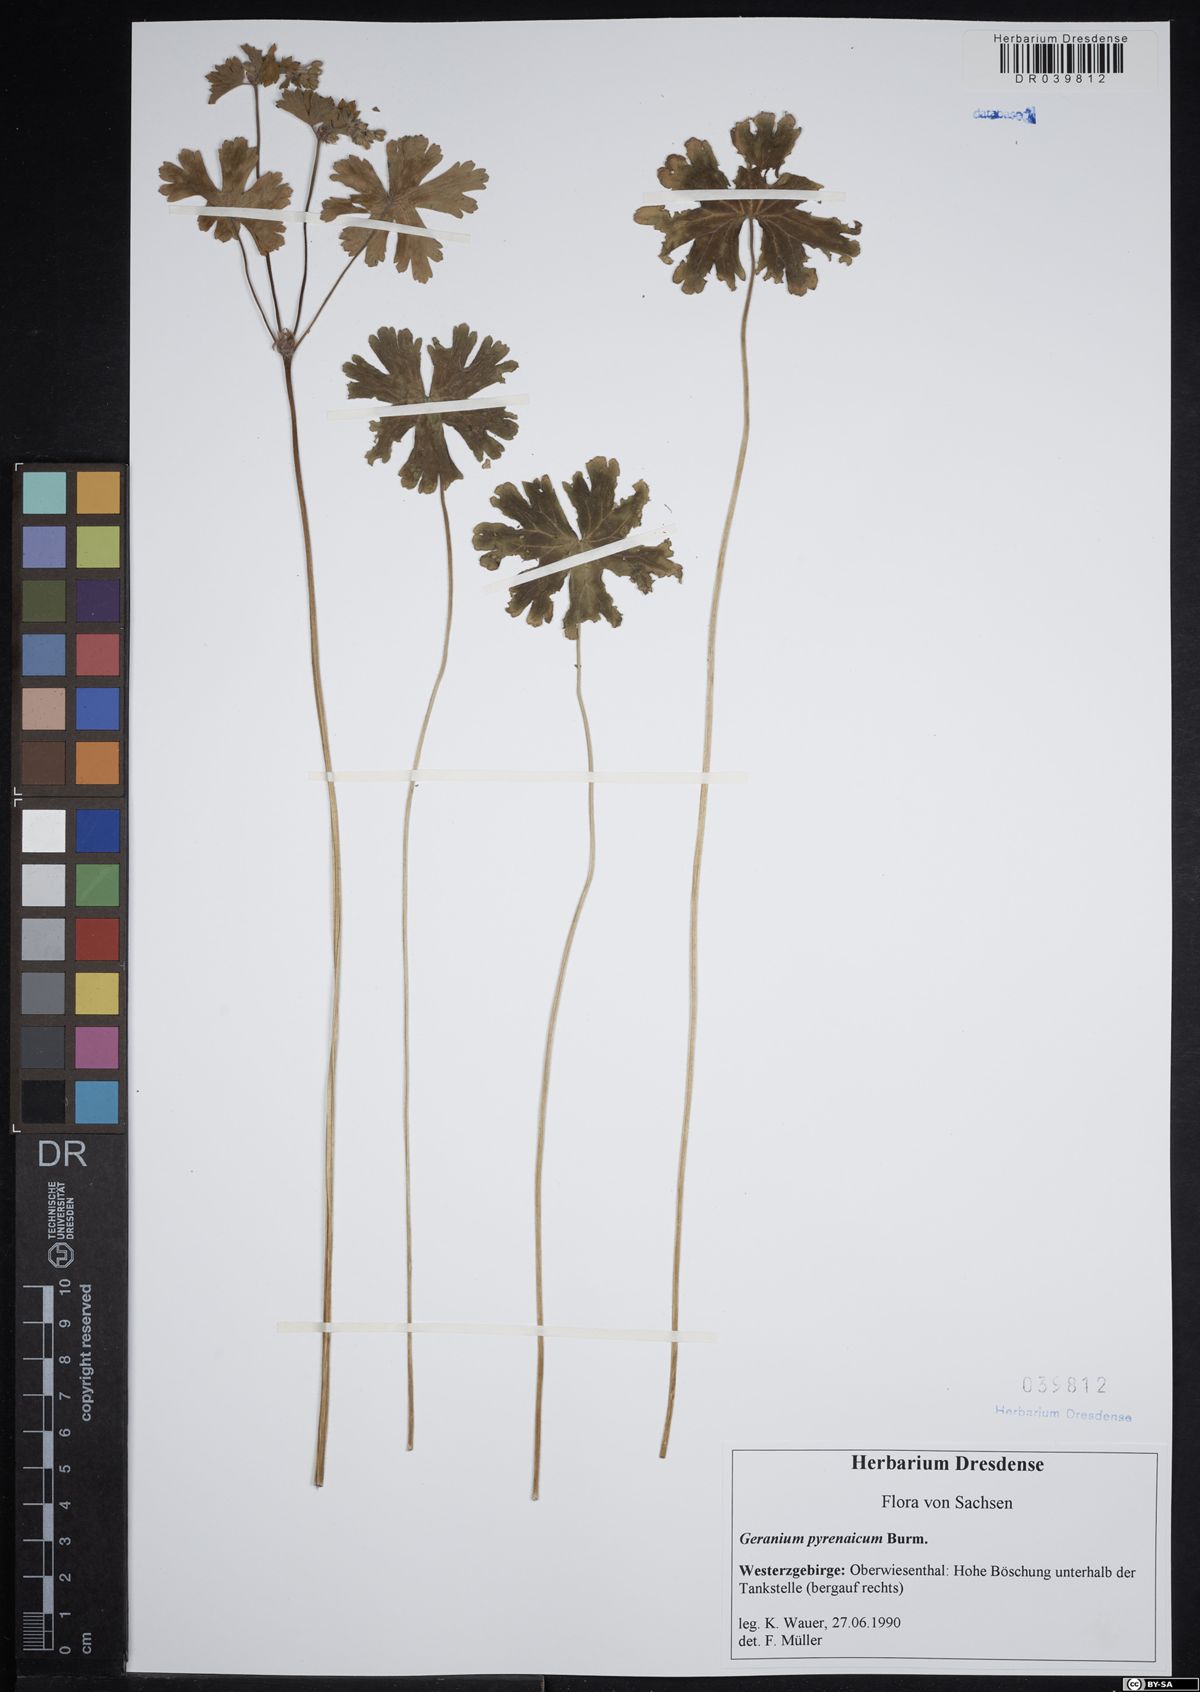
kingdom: Plantae
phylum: Tracheophyta
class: Magnoliopsida
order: Geraniales
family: Geraniaceae
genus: Geranium
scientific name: Geranium pyrenaicum
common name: Hedgerow crane's-bill
